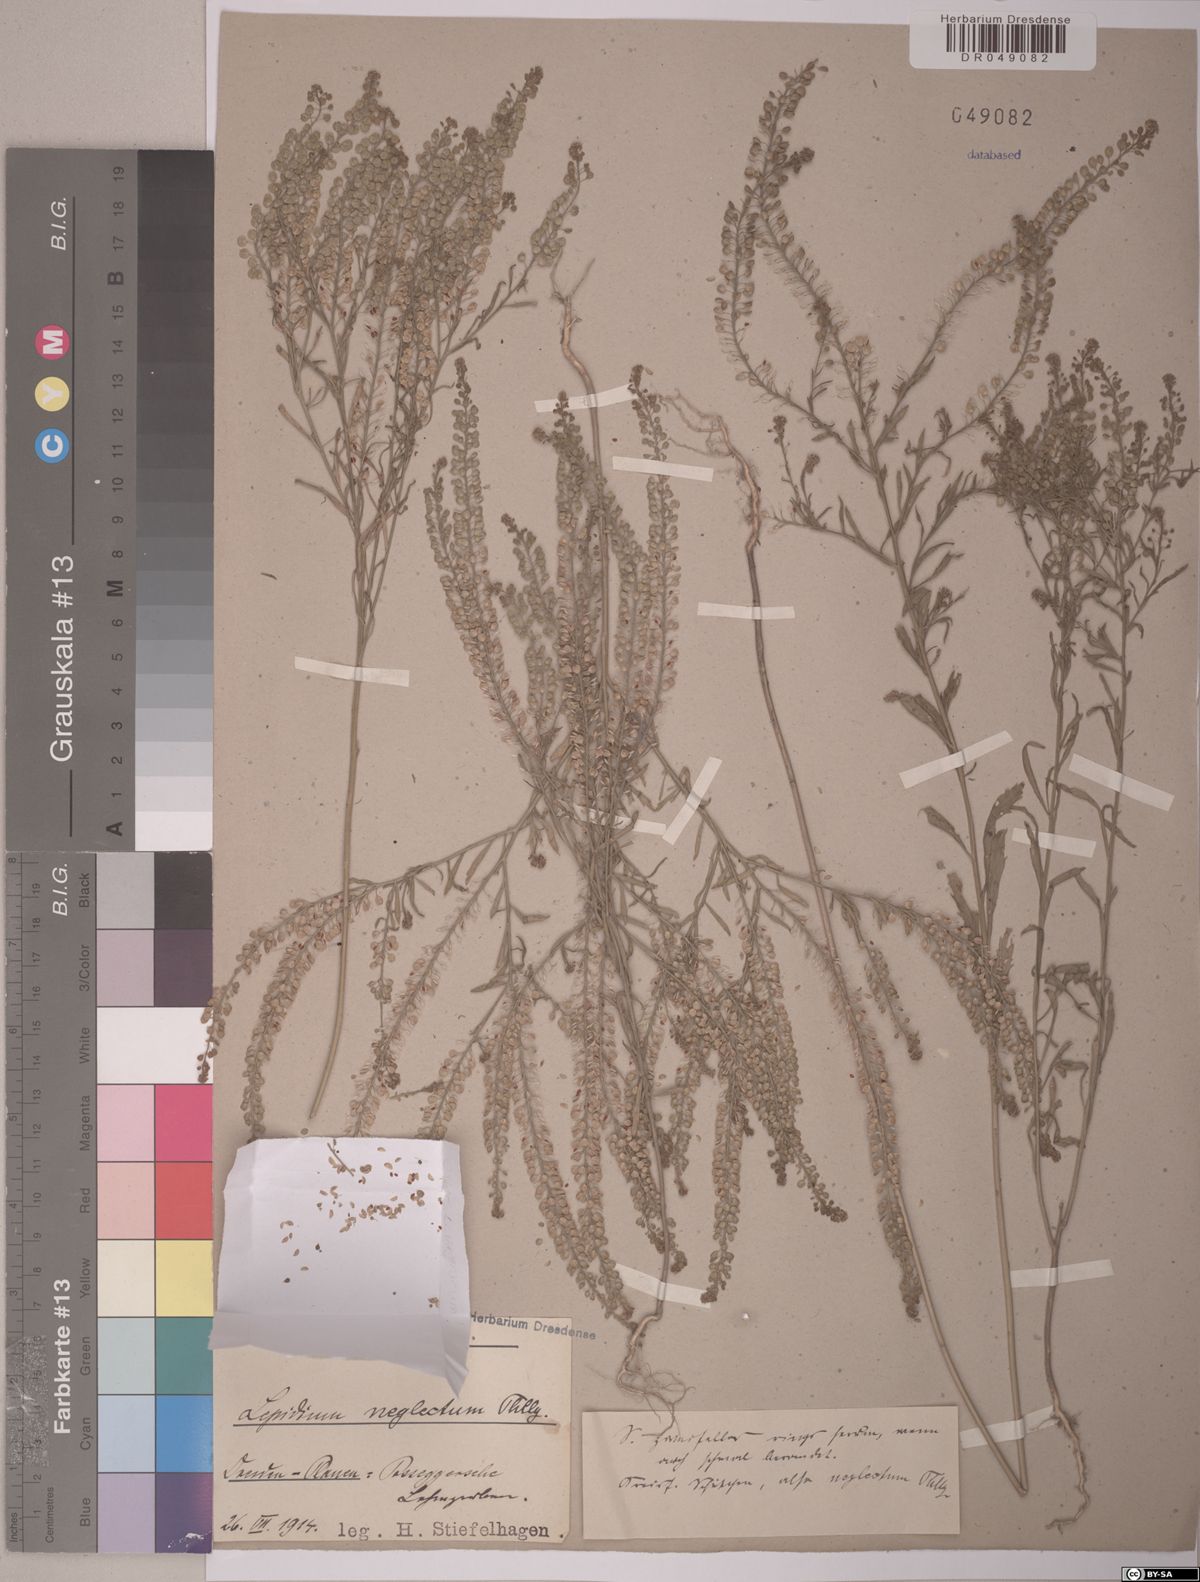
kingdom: Plantae
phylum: Tracheophyta
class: Magnoliopsida
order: Brassicales
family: Brassicaceae
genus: Lepidium
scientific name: Lepidium densiflorum
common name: Miner's pepperwort
